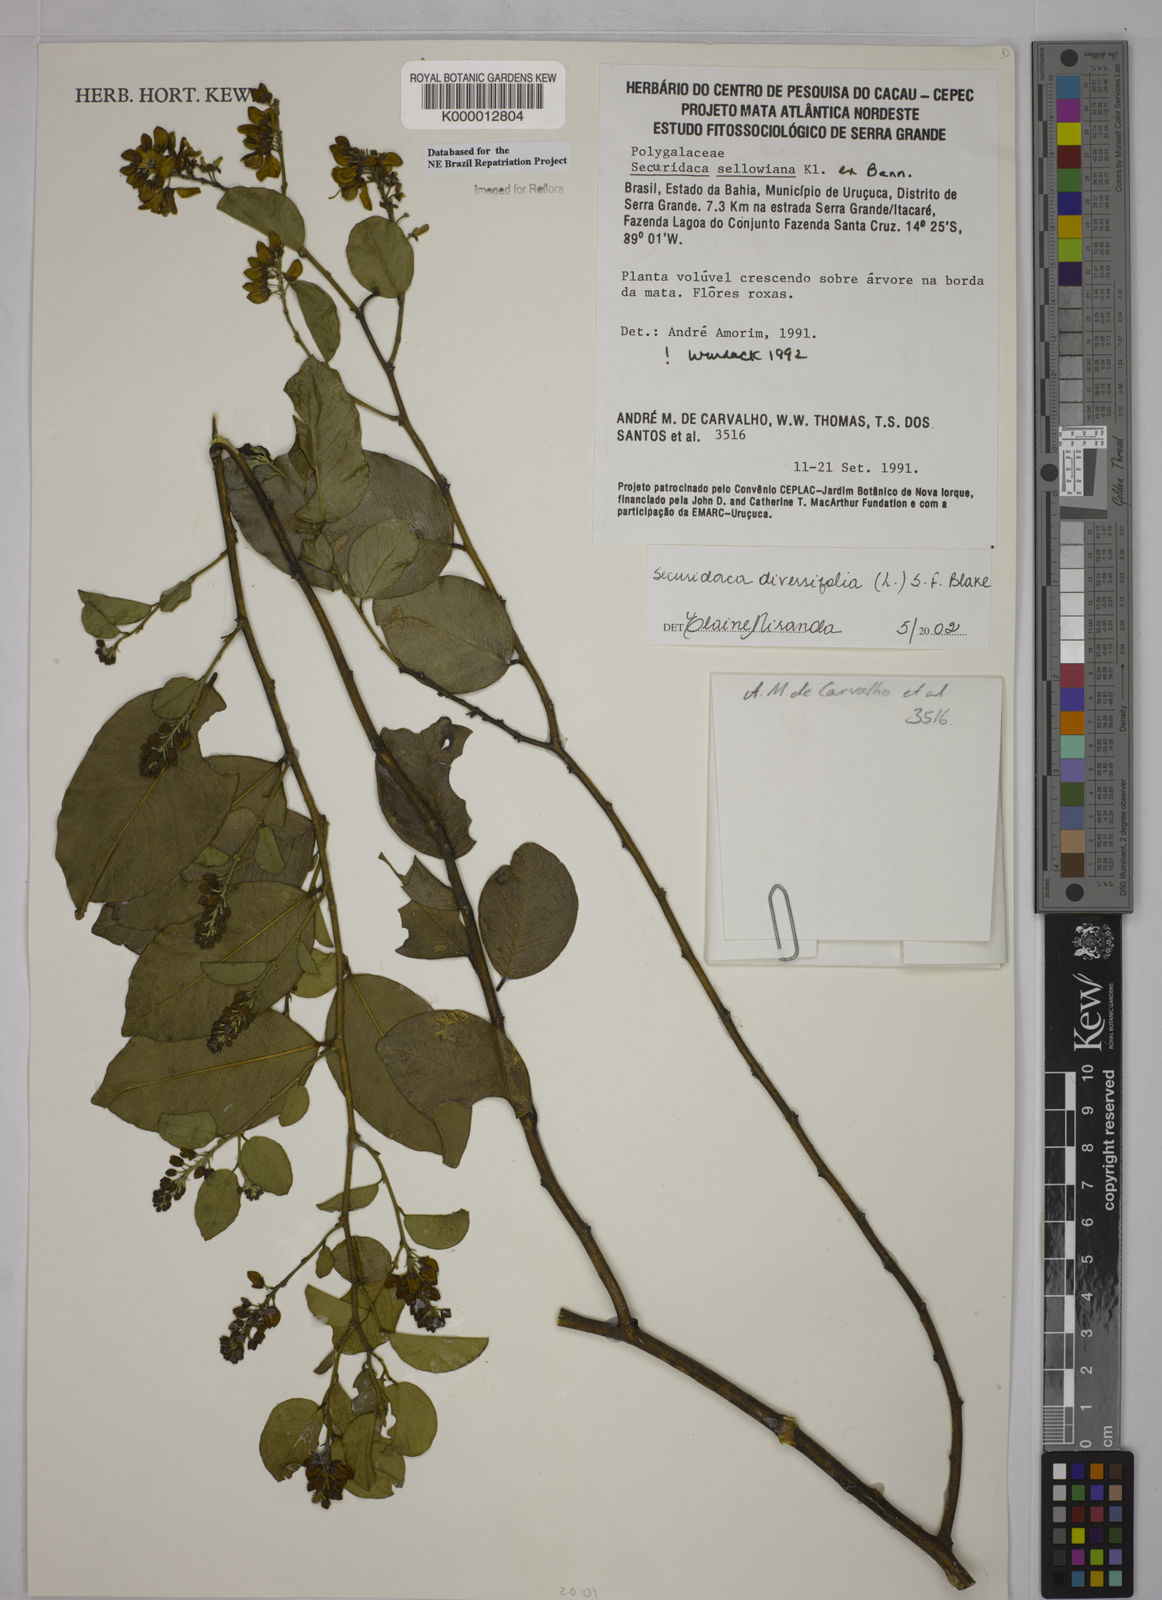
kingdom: Plantae
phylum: Tracheophyta
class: Magnoliopsida
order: Fabales
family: Polygalaceae
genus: Securidaca
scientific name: Securidaca diversifolia
